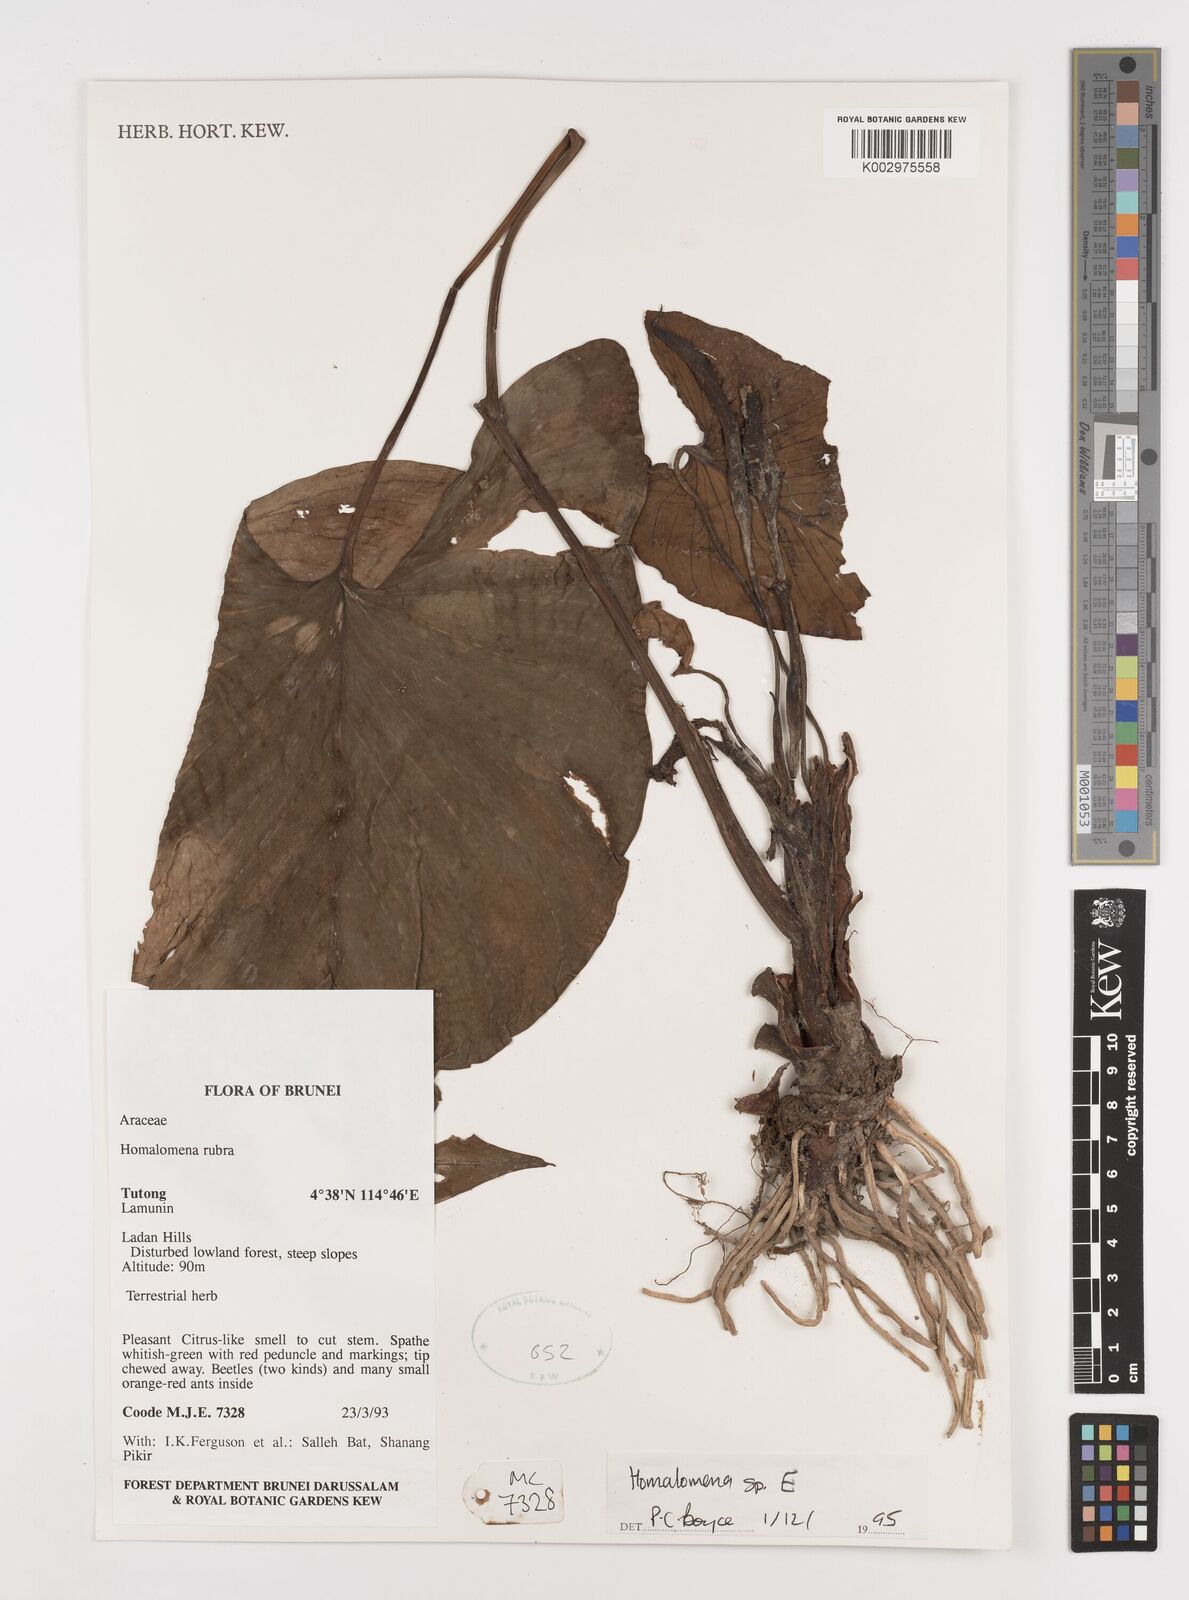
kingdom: Plantae
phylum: Tracheophyta
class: Liliopsida
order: Alismatales
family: Araceae
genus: Homalomena
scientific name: Homalomena
